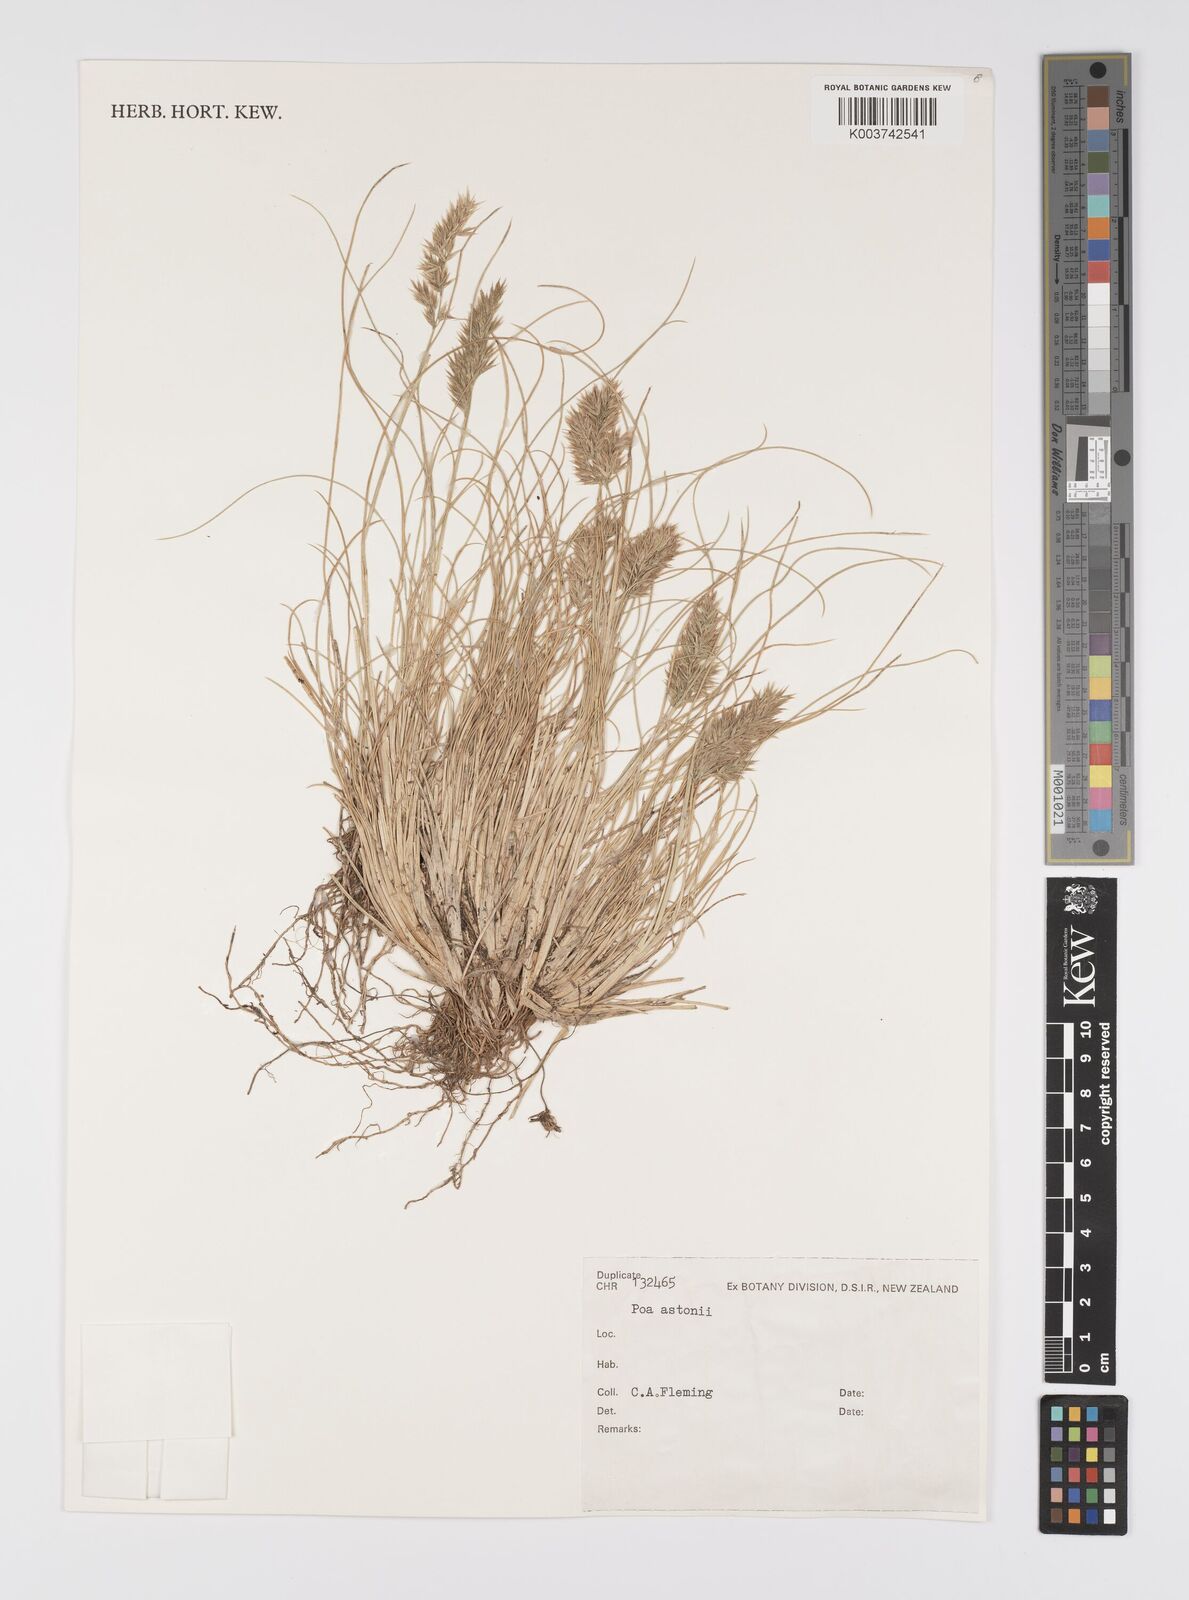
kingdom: Plantae
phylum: Tracheophyta
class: Liliopsida
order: Poales
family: Poaceae
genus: Poa
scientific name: Poa astonii
